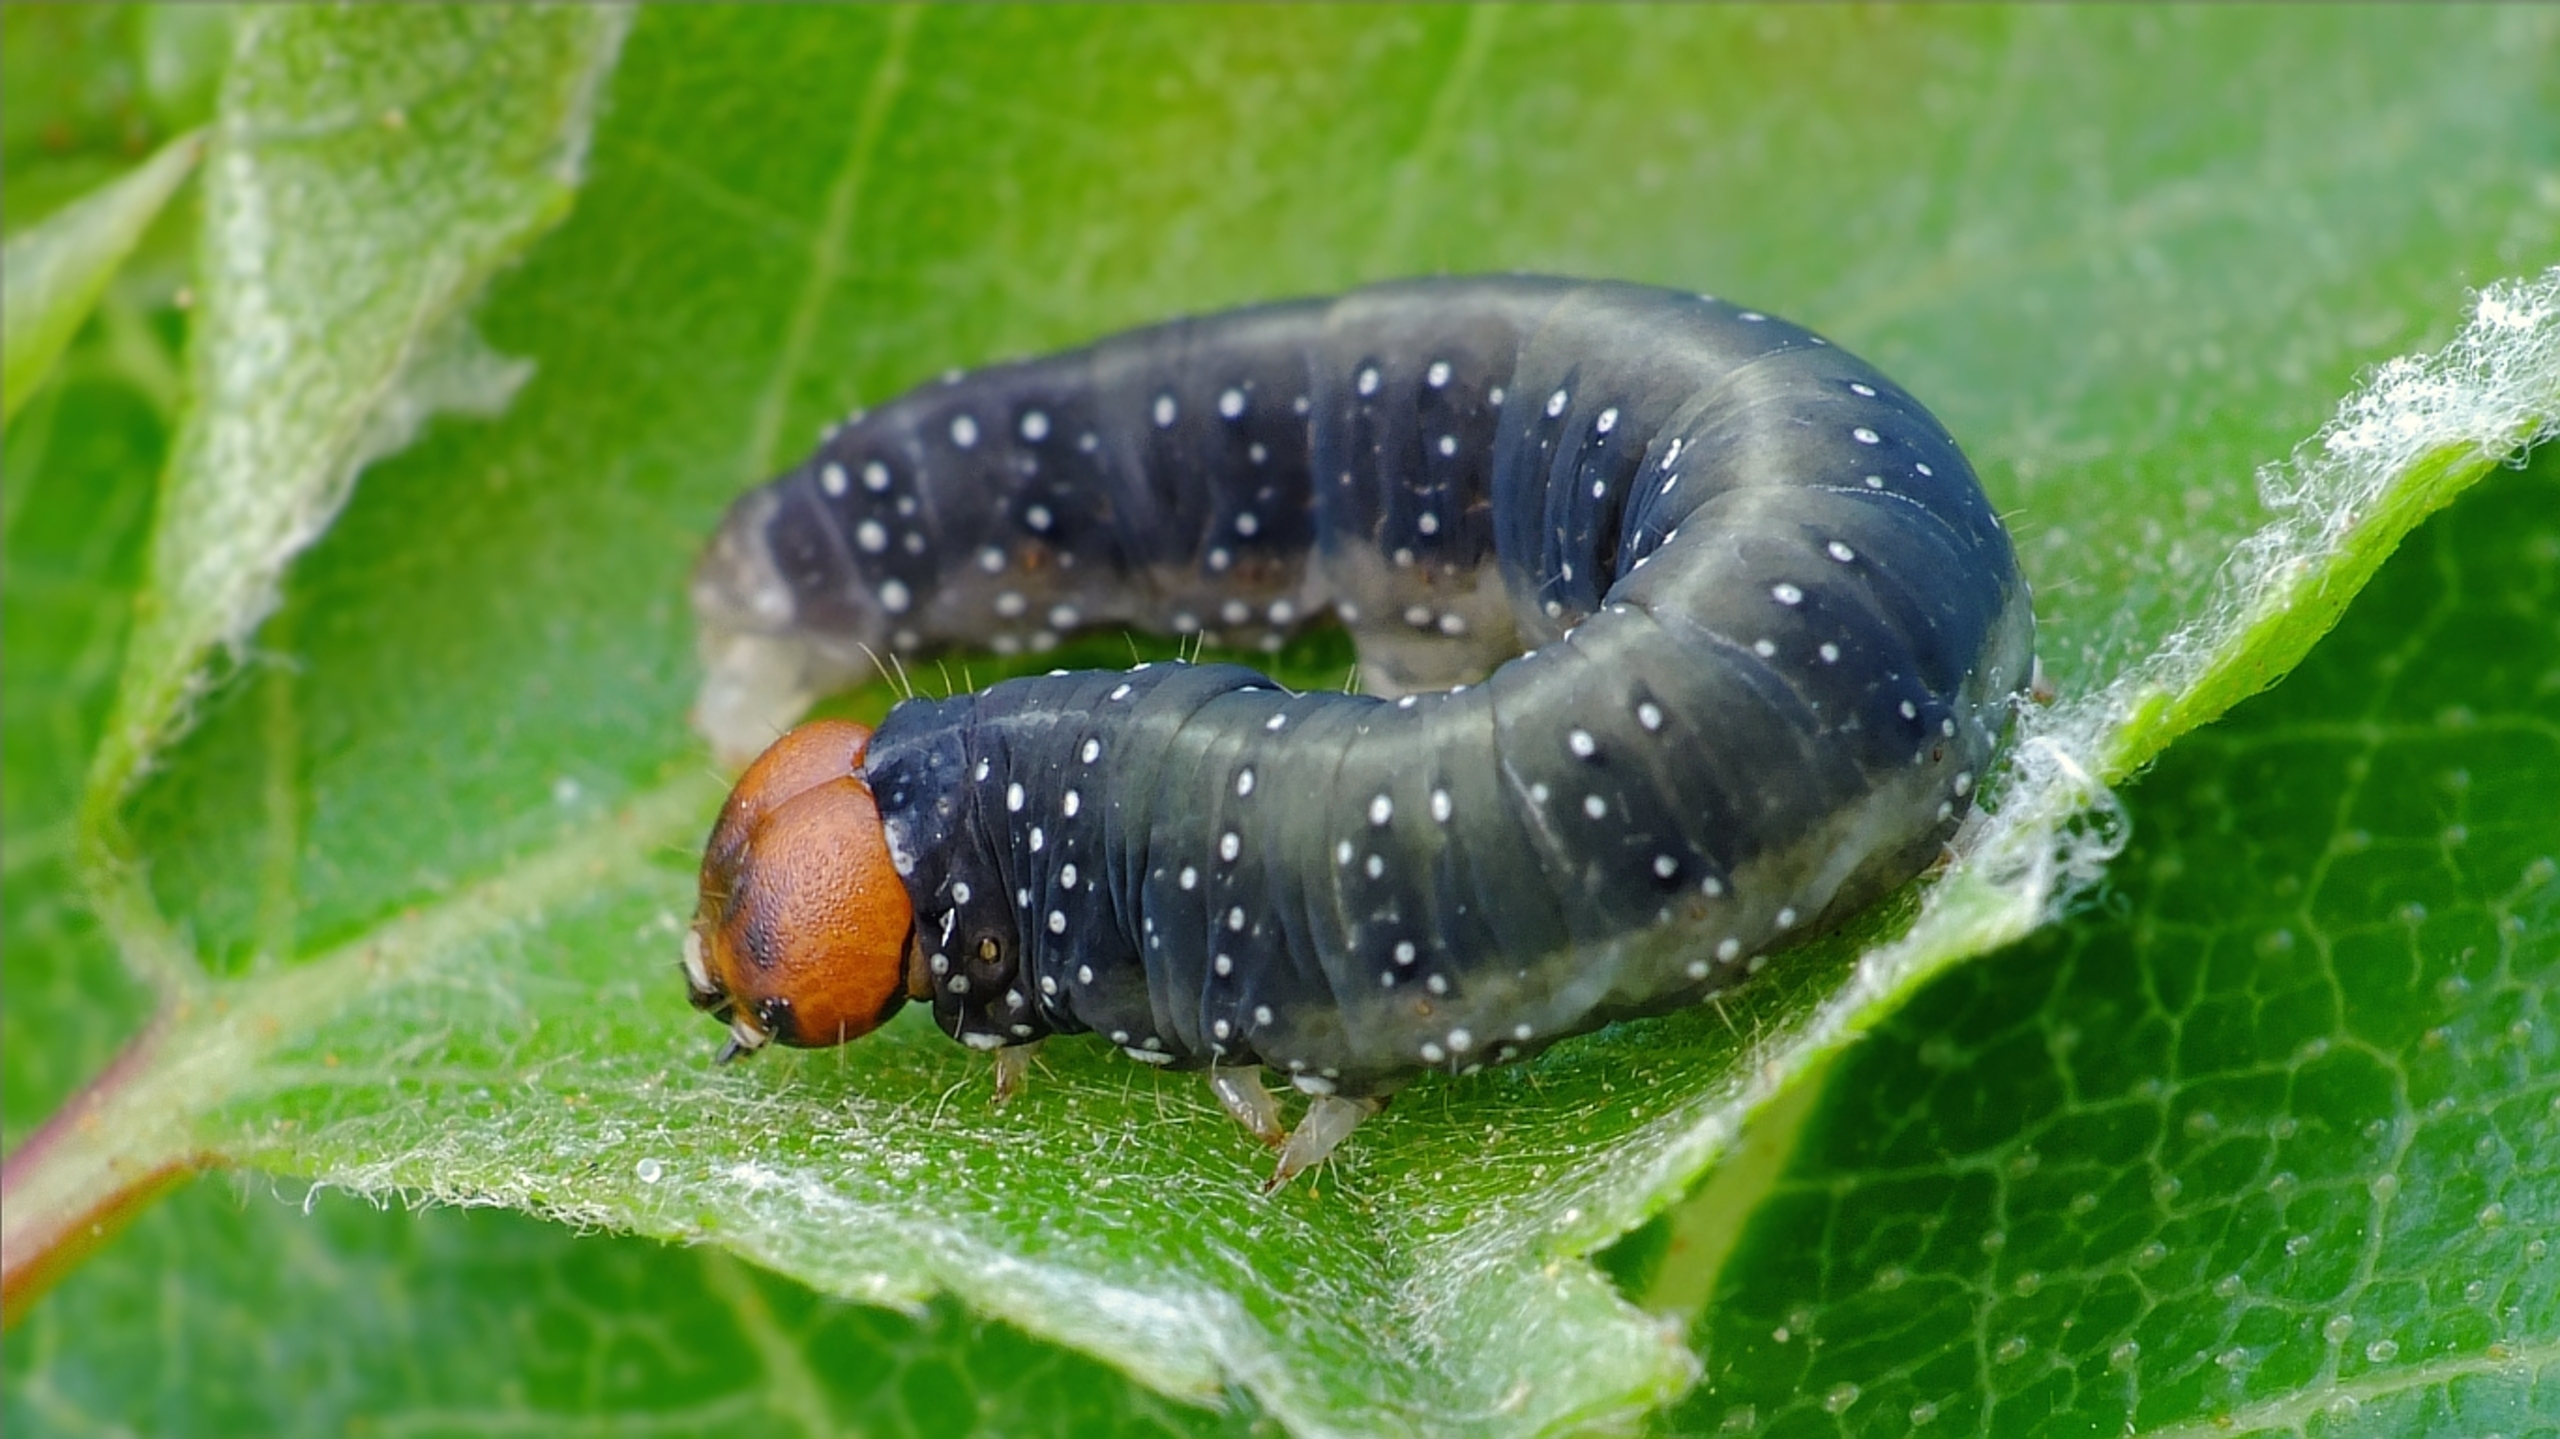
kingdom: Animalia
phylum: Arthropoda
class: Insecta
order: Lepidoptera
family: Drepanidae
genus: Achlya
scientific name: Achlya flavicornis
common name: Guldhornet uglespinder
